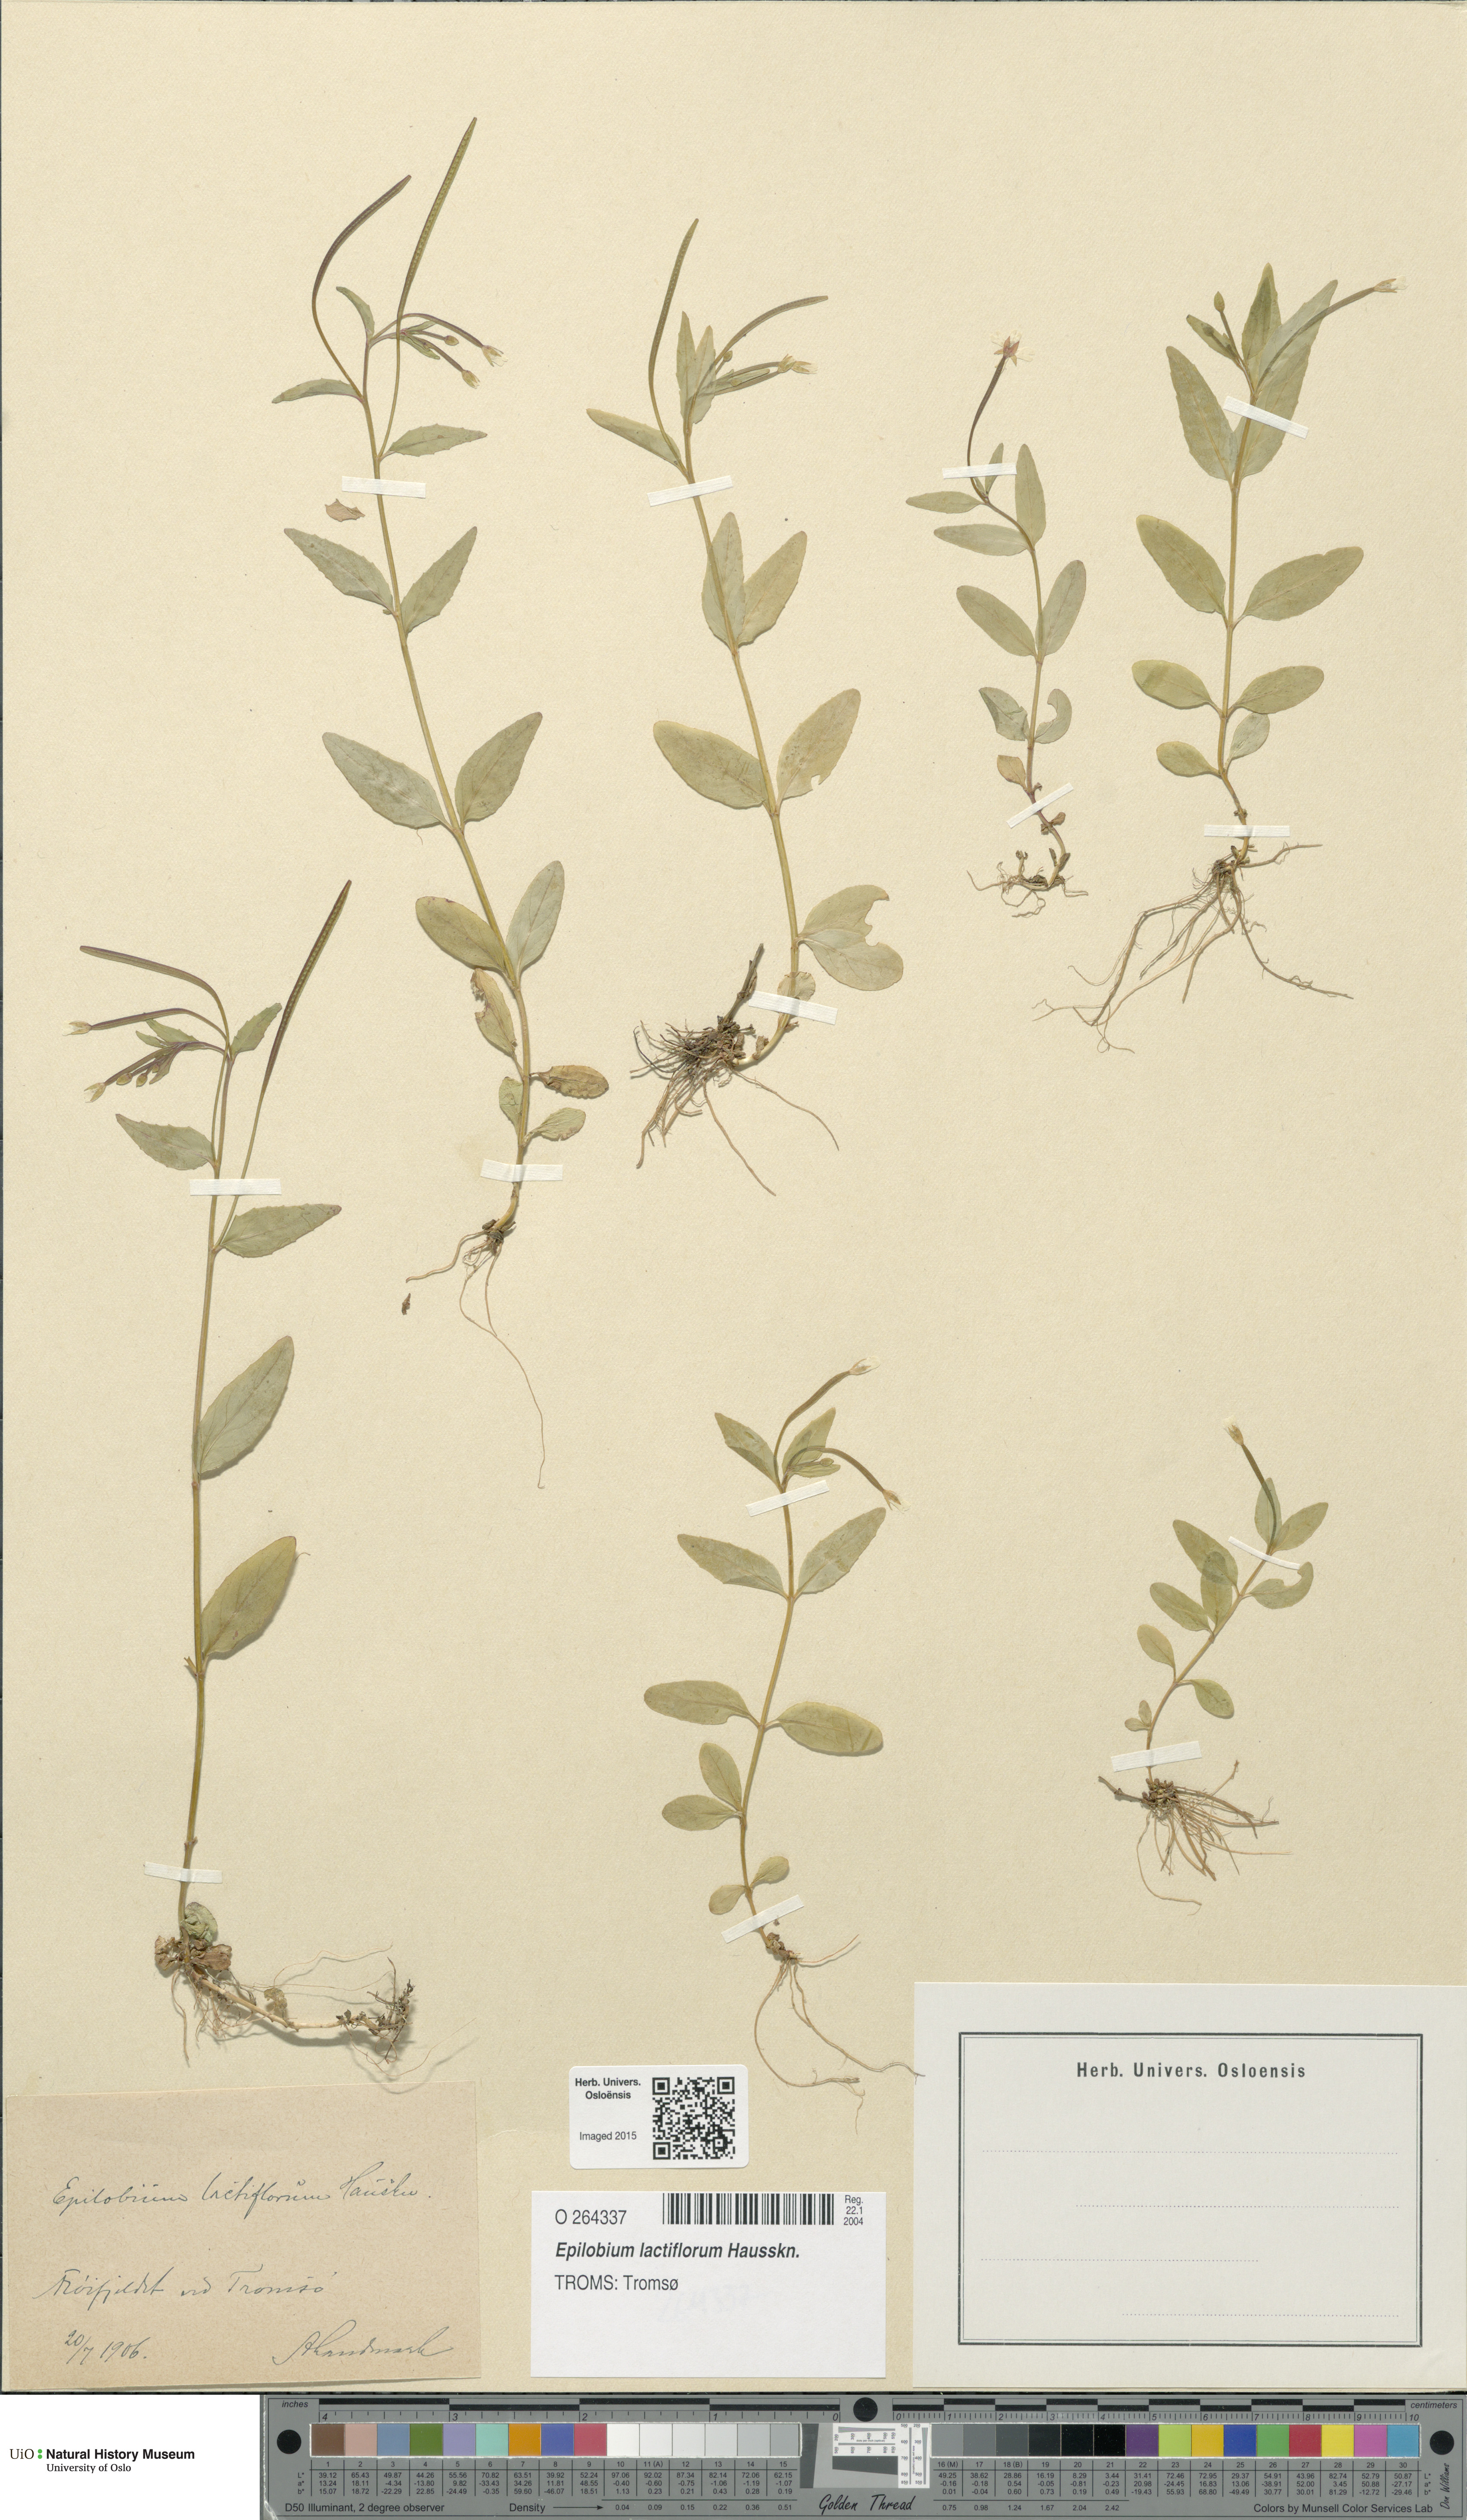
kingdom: Plantae
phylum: Tracheophyta
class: Magnoliopsida
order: Myrtales
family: Onagraceae
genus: Epilobium
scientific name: Epilobium lactiflorum
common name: Milkflower willowherb
